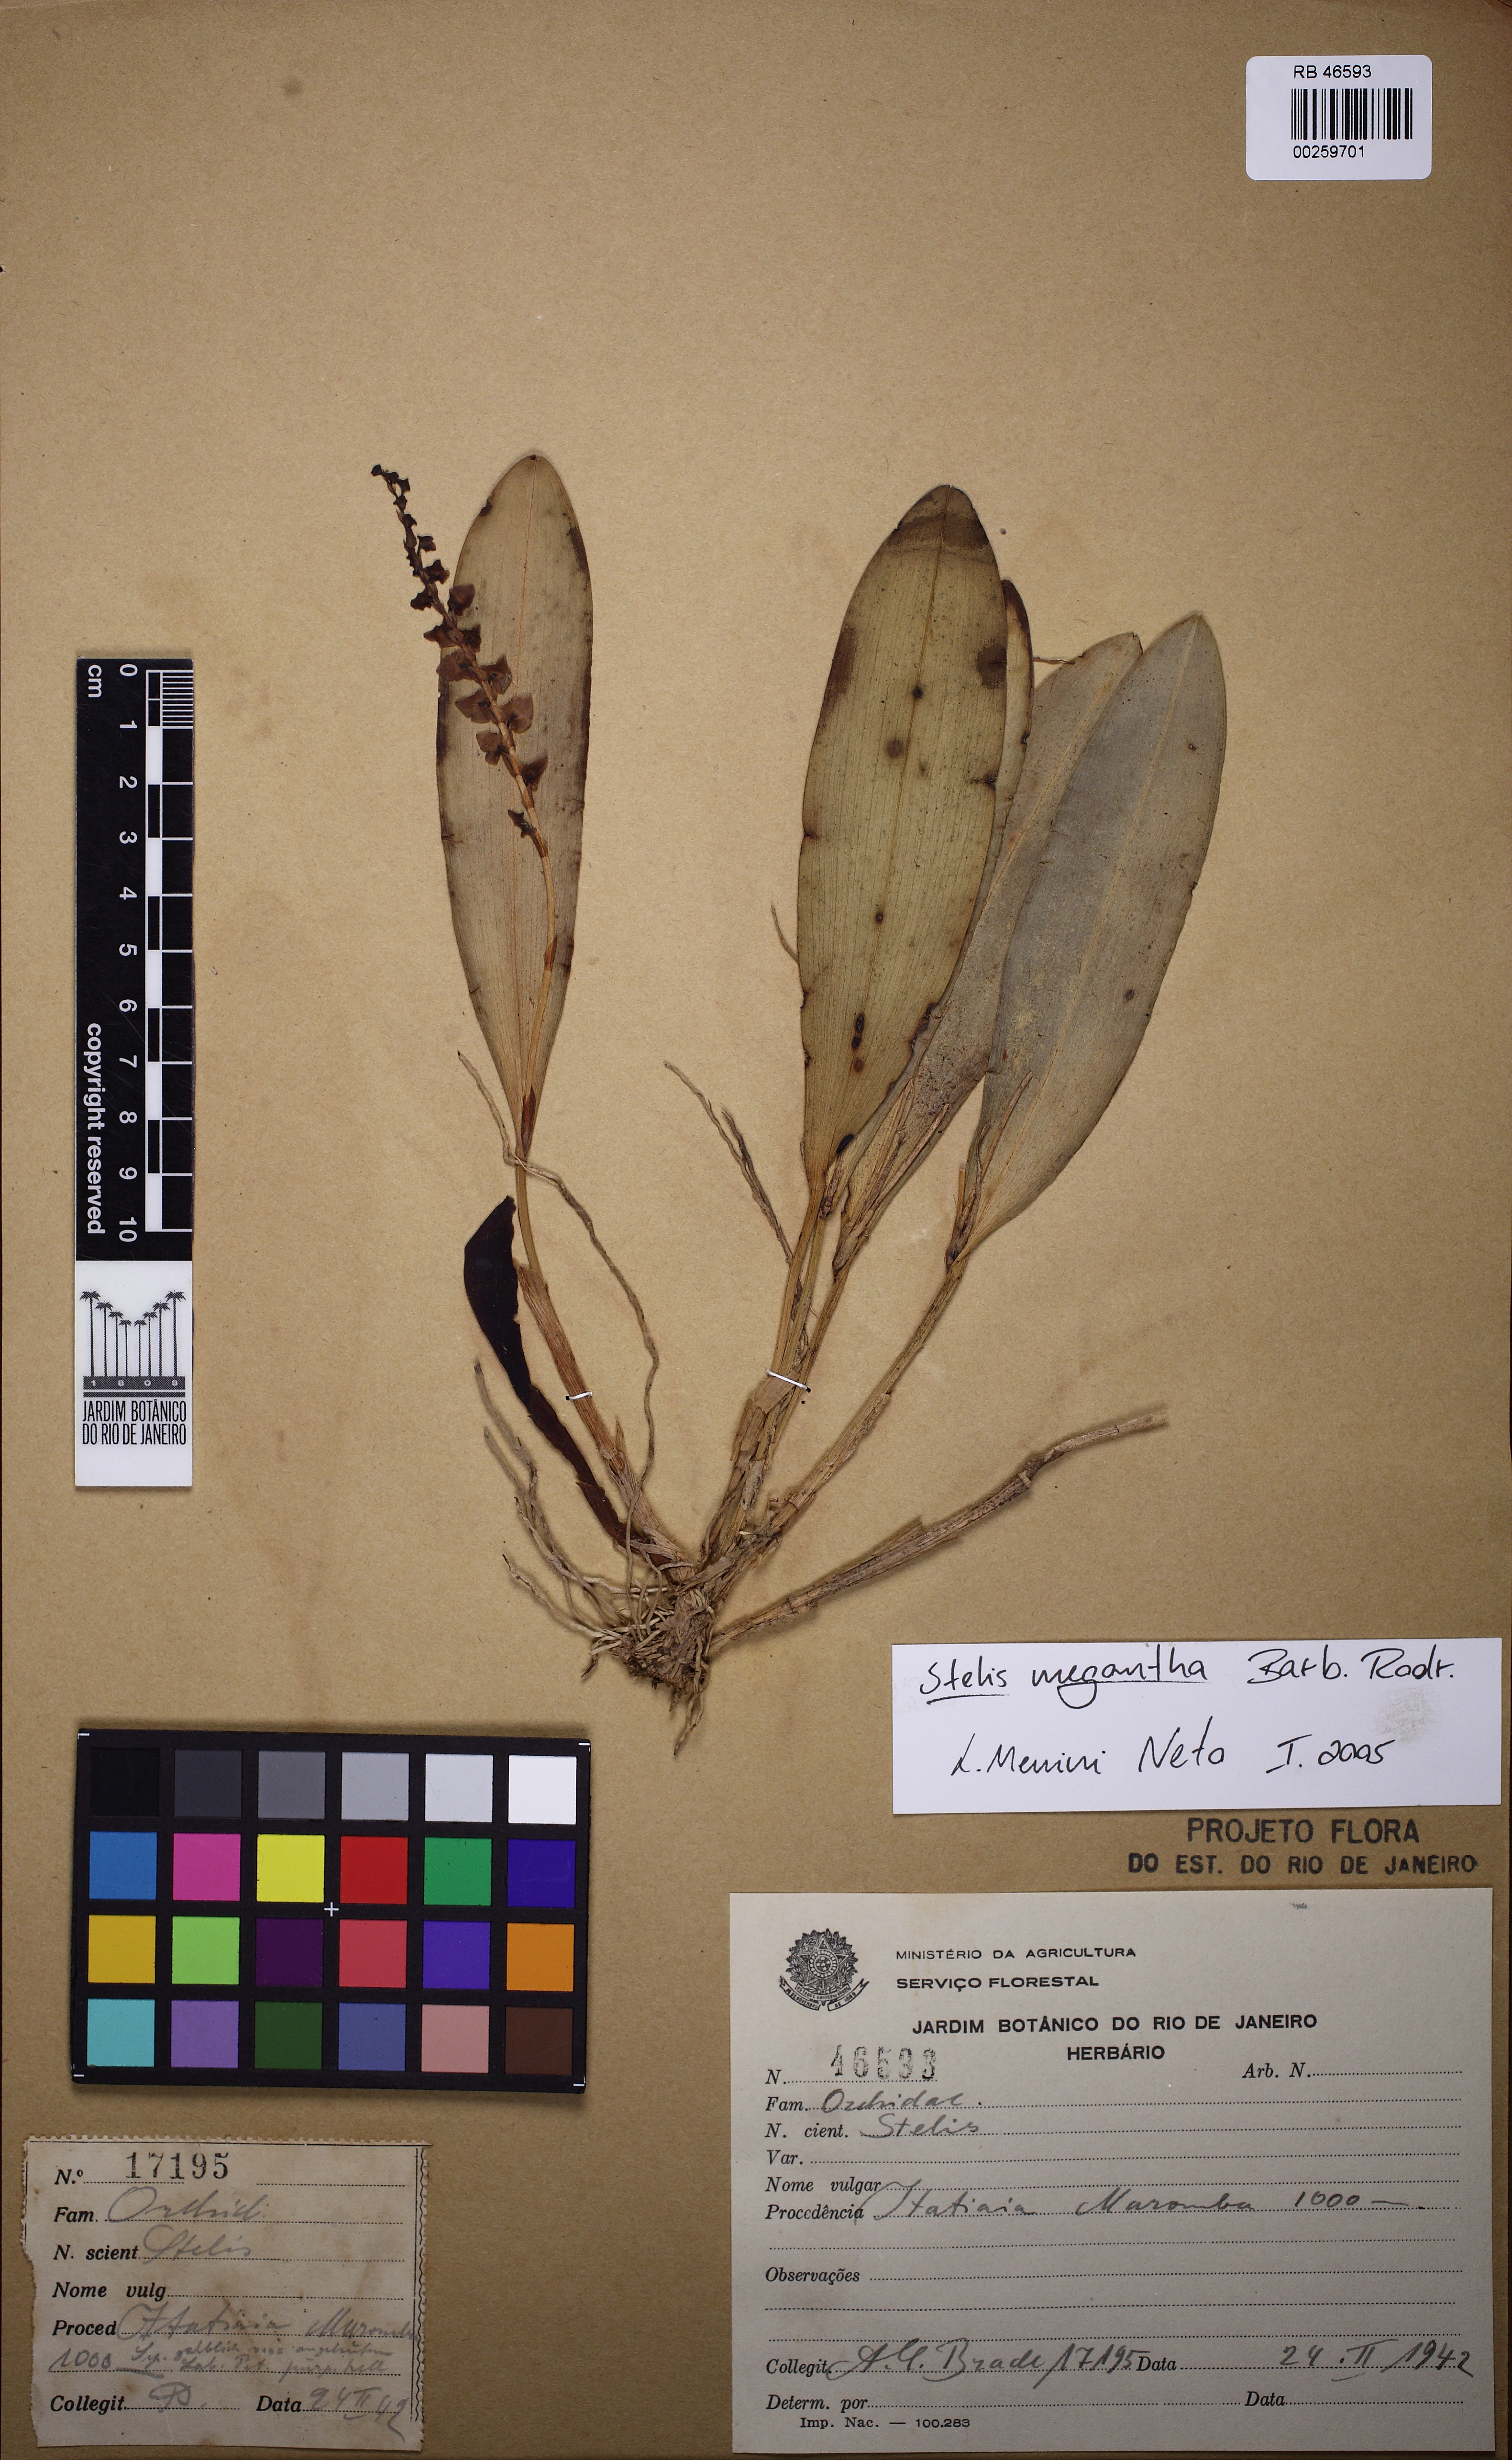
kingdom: Plantae
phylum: Tracheophyta
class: Liliopsida
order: Asparagales
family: Orchidaceae
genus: Stelis
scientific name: Stelis grandiflora
